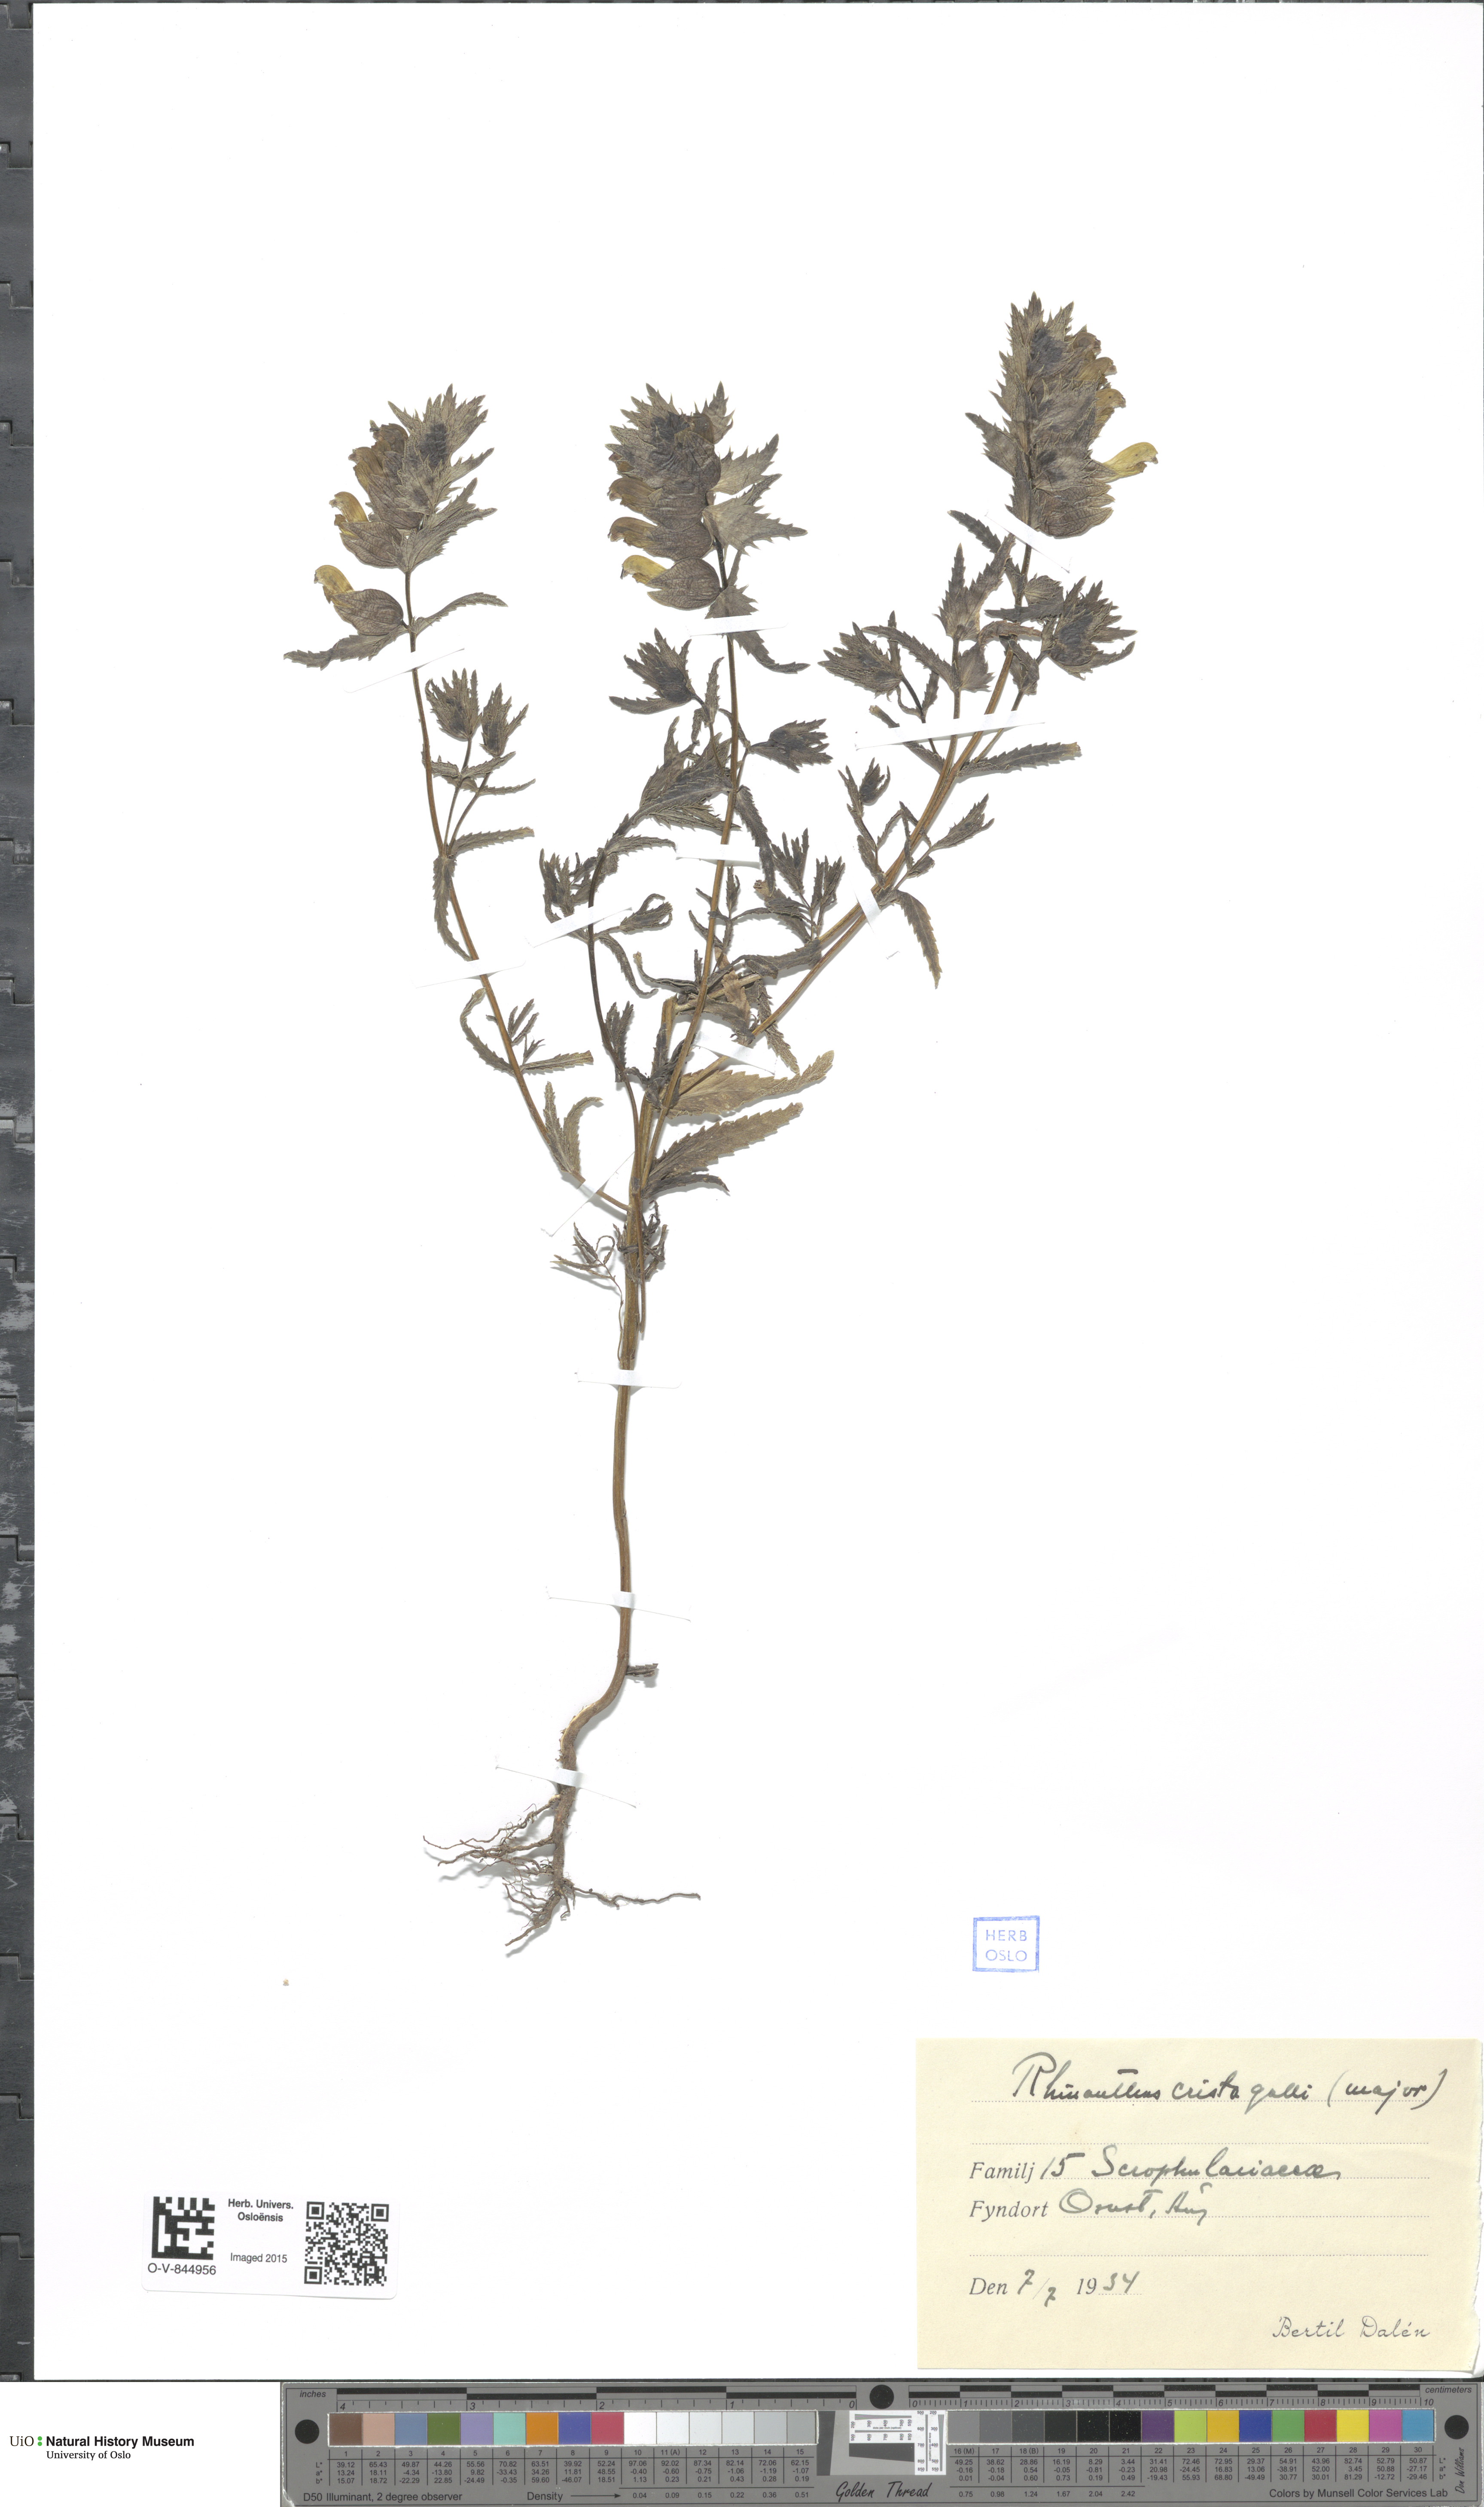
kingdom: Plantae
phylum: Tracheophyta
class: Magnoliopsida
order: Lamiales
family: Orobanchaceae
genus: Rhinanthus
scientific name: Rhinanthus minor
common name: Yellow-rattle
